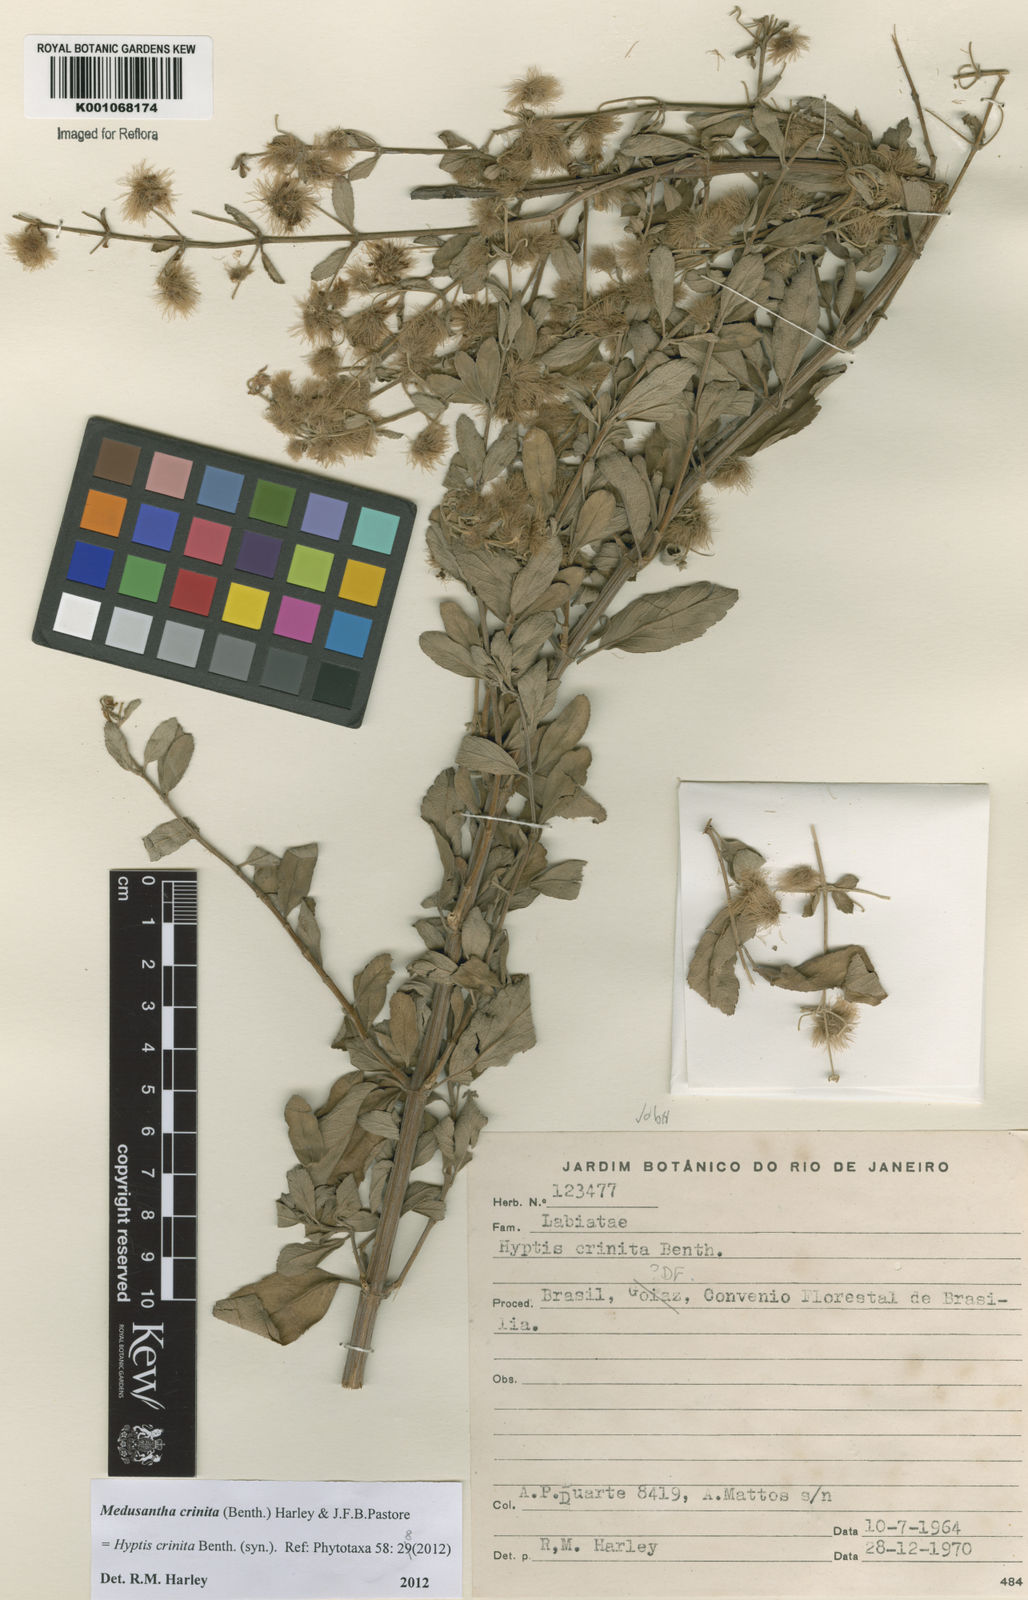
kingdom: Plantae
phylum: Tracheophyta
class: Magnoliopsida
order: Lamiales
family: Lamiaceae
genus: Medusantha
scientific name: Medusantha crinita
